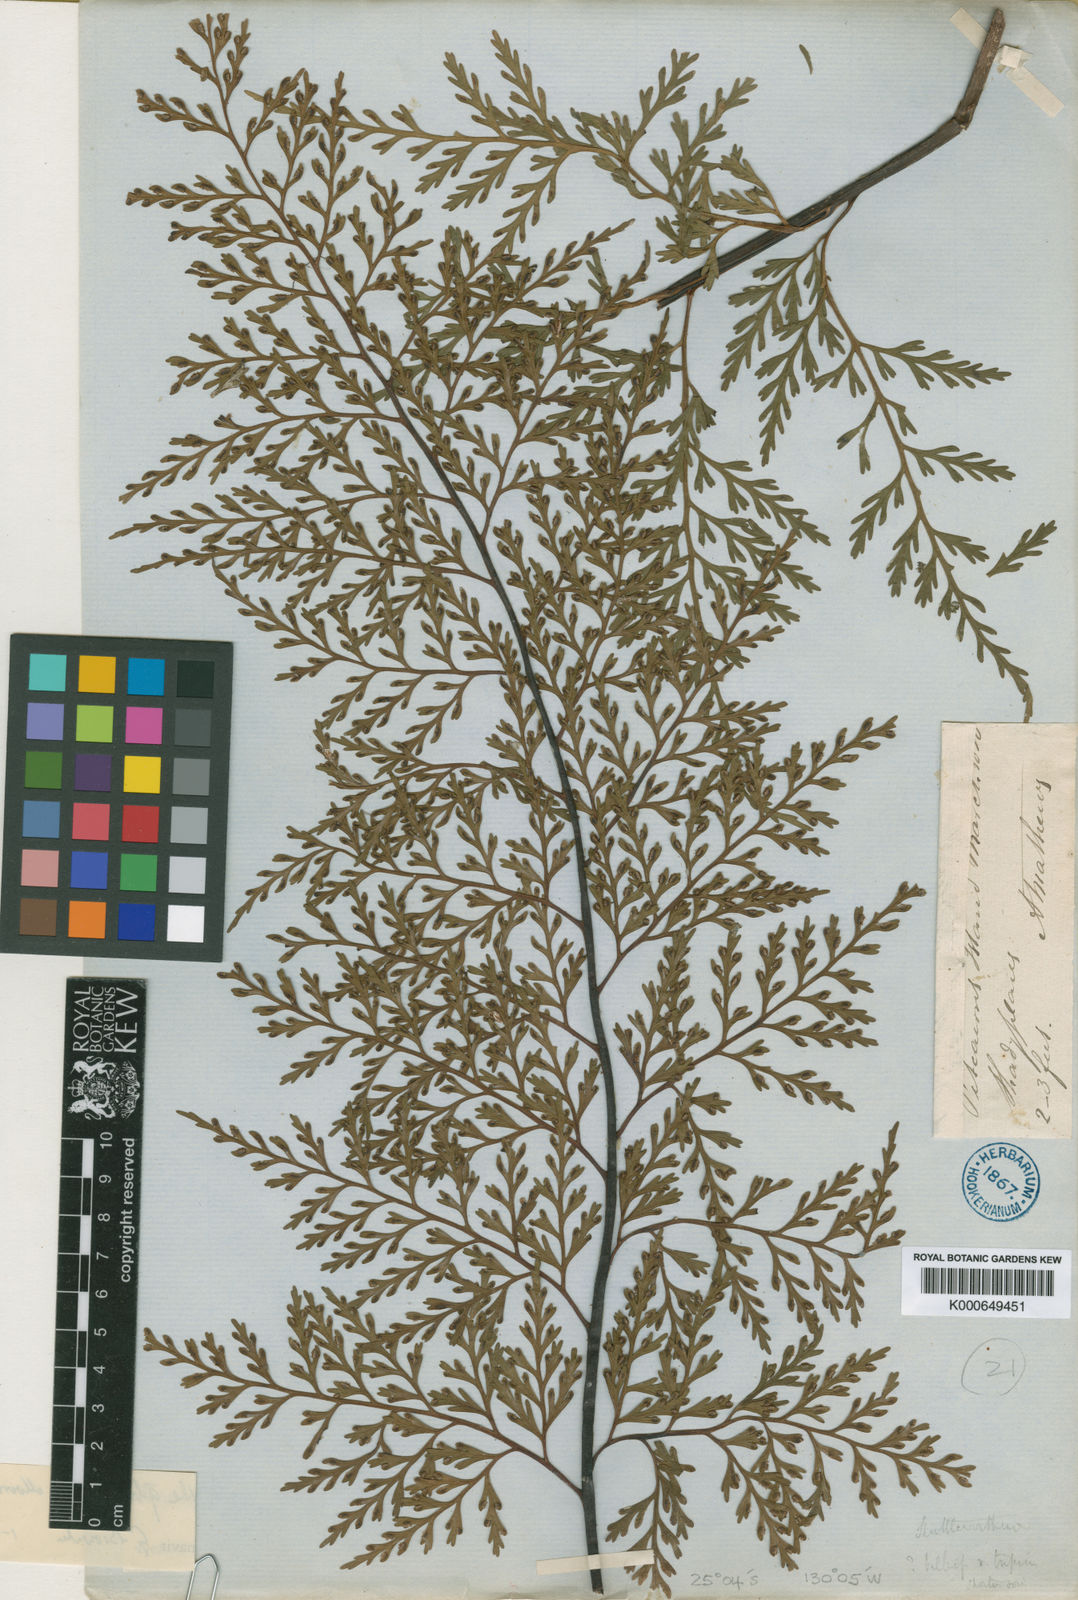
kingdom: Plantae
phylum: Tracheophyta
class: Polypodiopsida
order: Polypodiales
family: Aspleniaceae
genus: Asplenium
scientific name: Asplenium gibberosum
